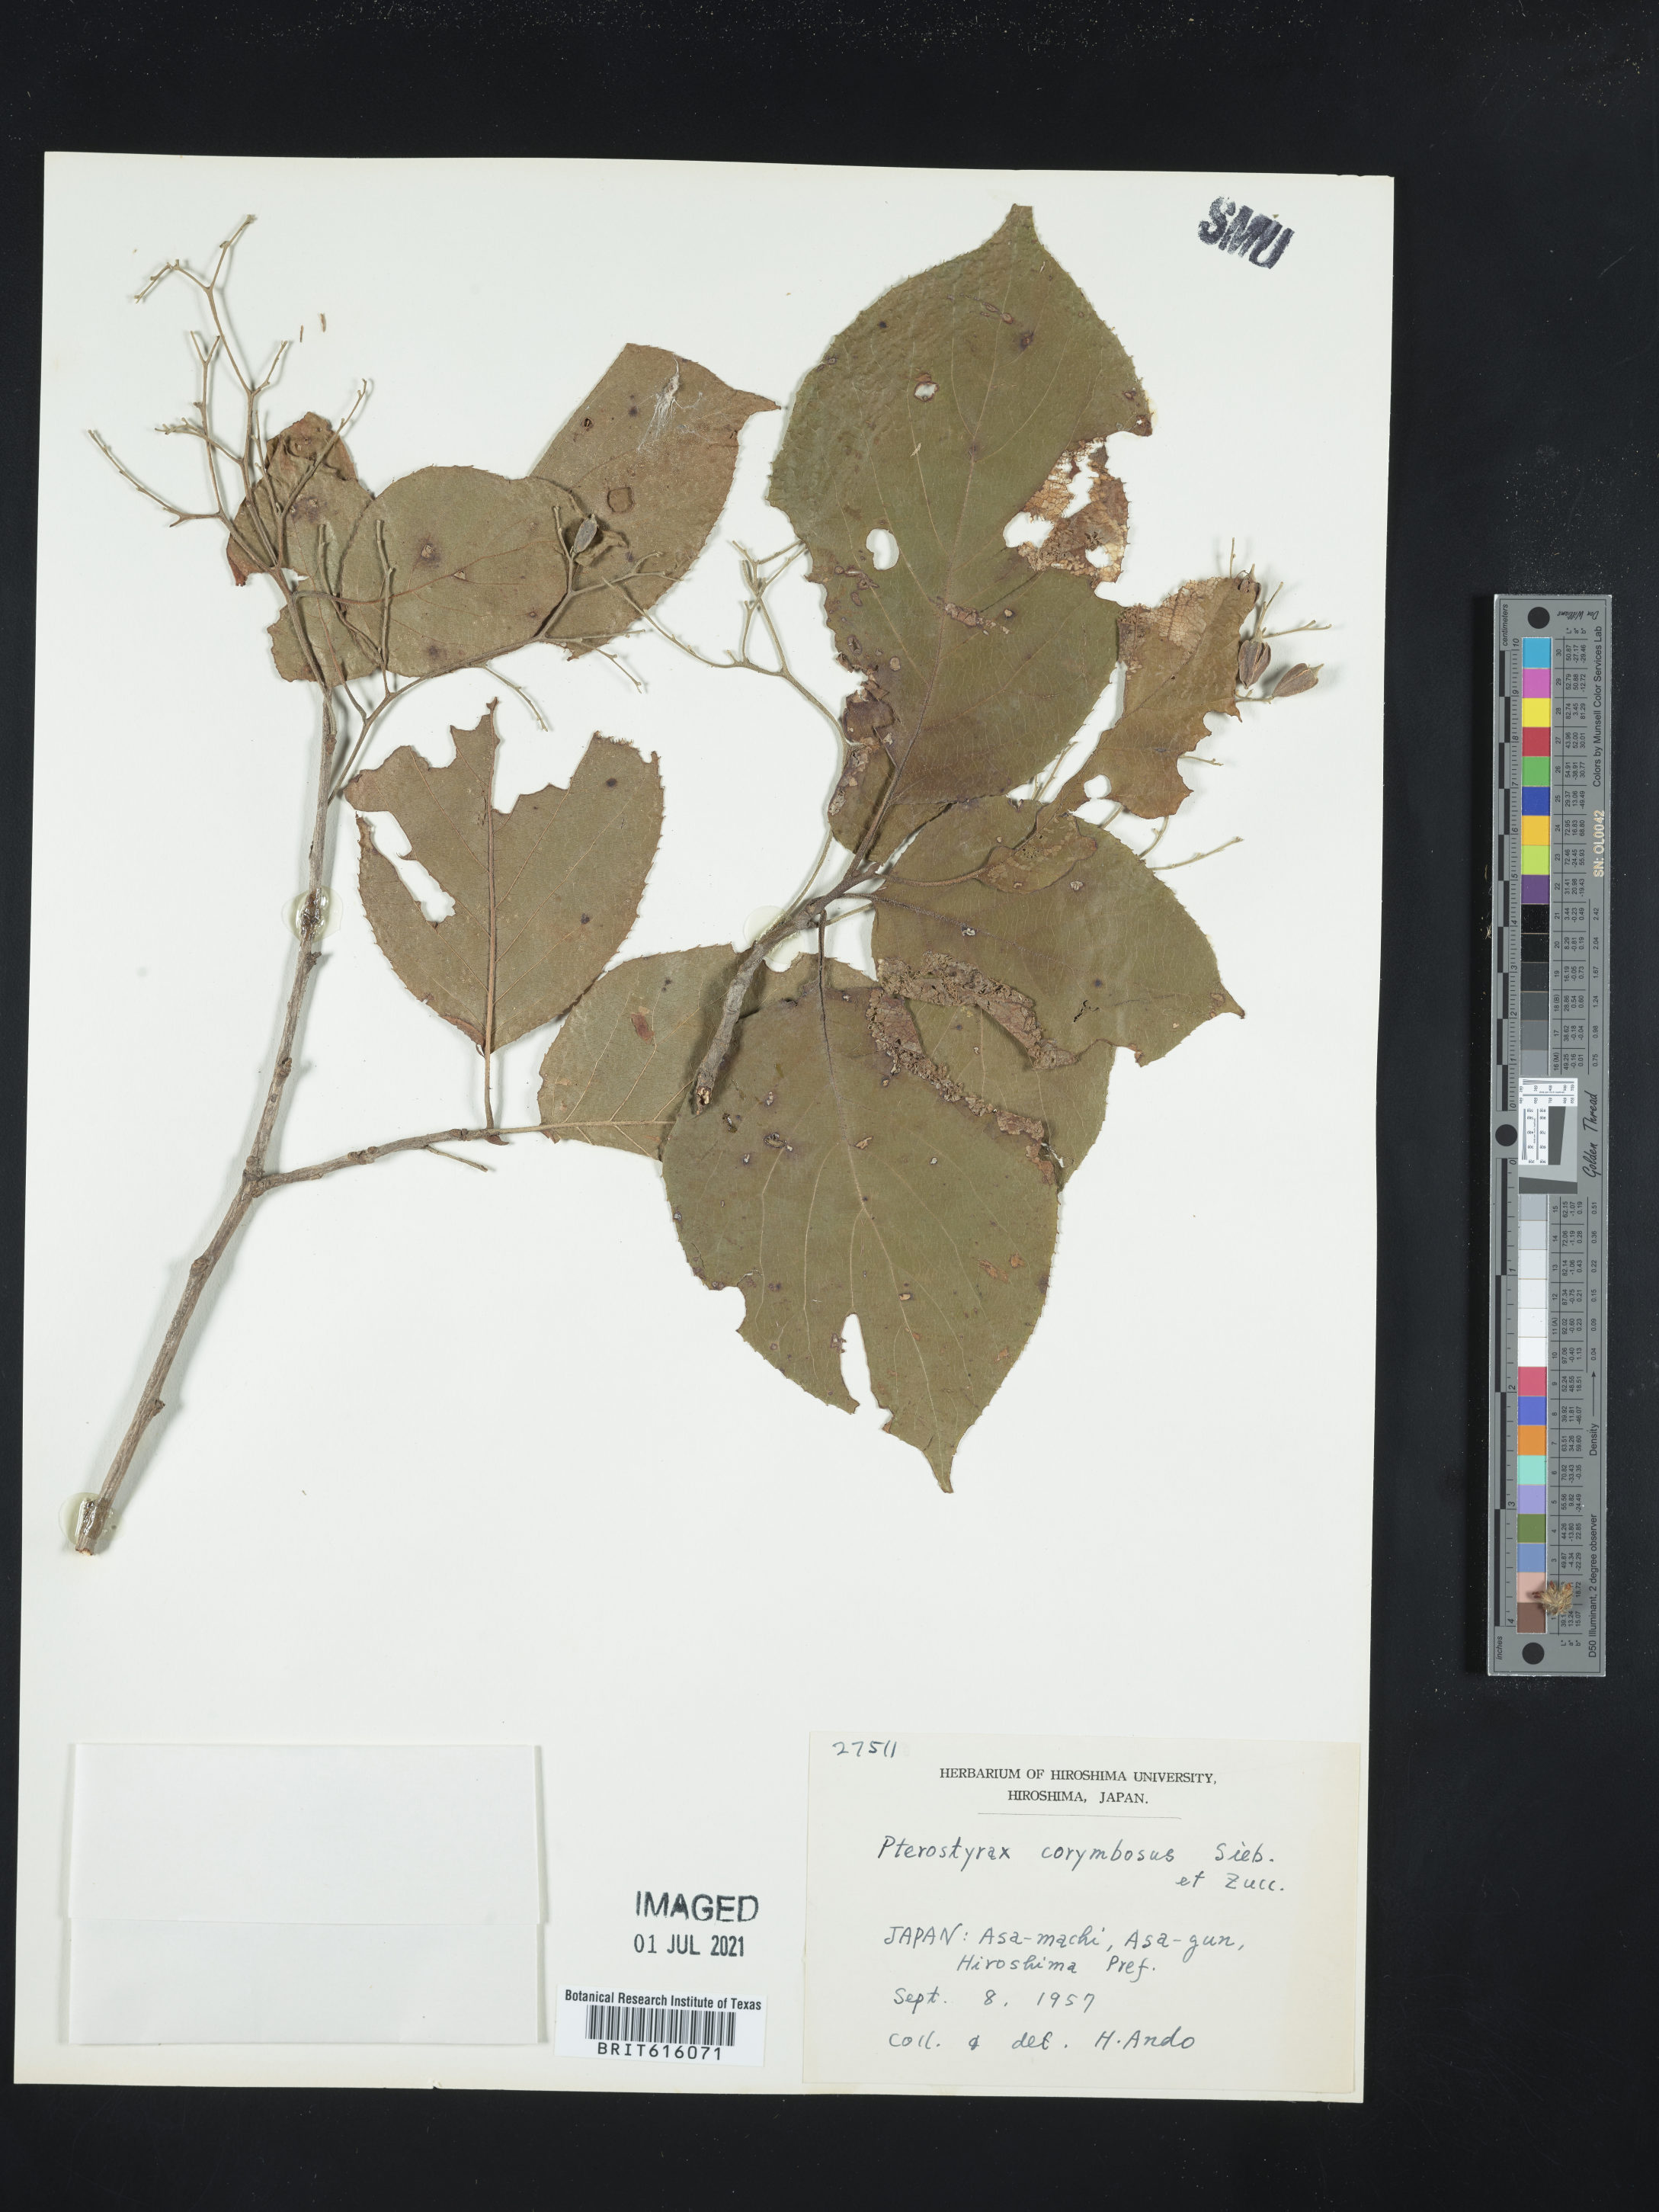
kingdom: Plantae
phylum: Tracheophyta
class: Magnoliopsida
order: Ericales
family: Styracaceae
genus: Pterostyrax
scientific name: Pterostyrax corymbosus
